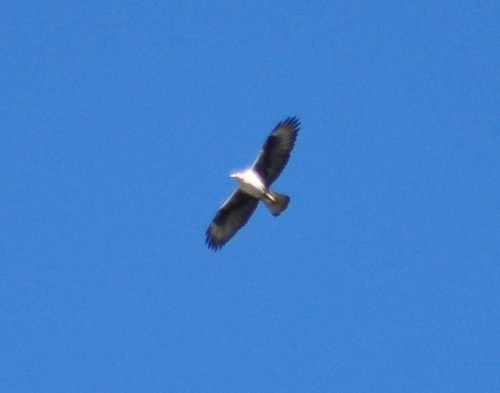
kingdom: Animalia
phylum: Chordata
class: Aves
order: Accipitriformes
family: Accipitridae
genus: Aquila
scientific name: Aquila fasciata
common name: Bonelli's eagle
